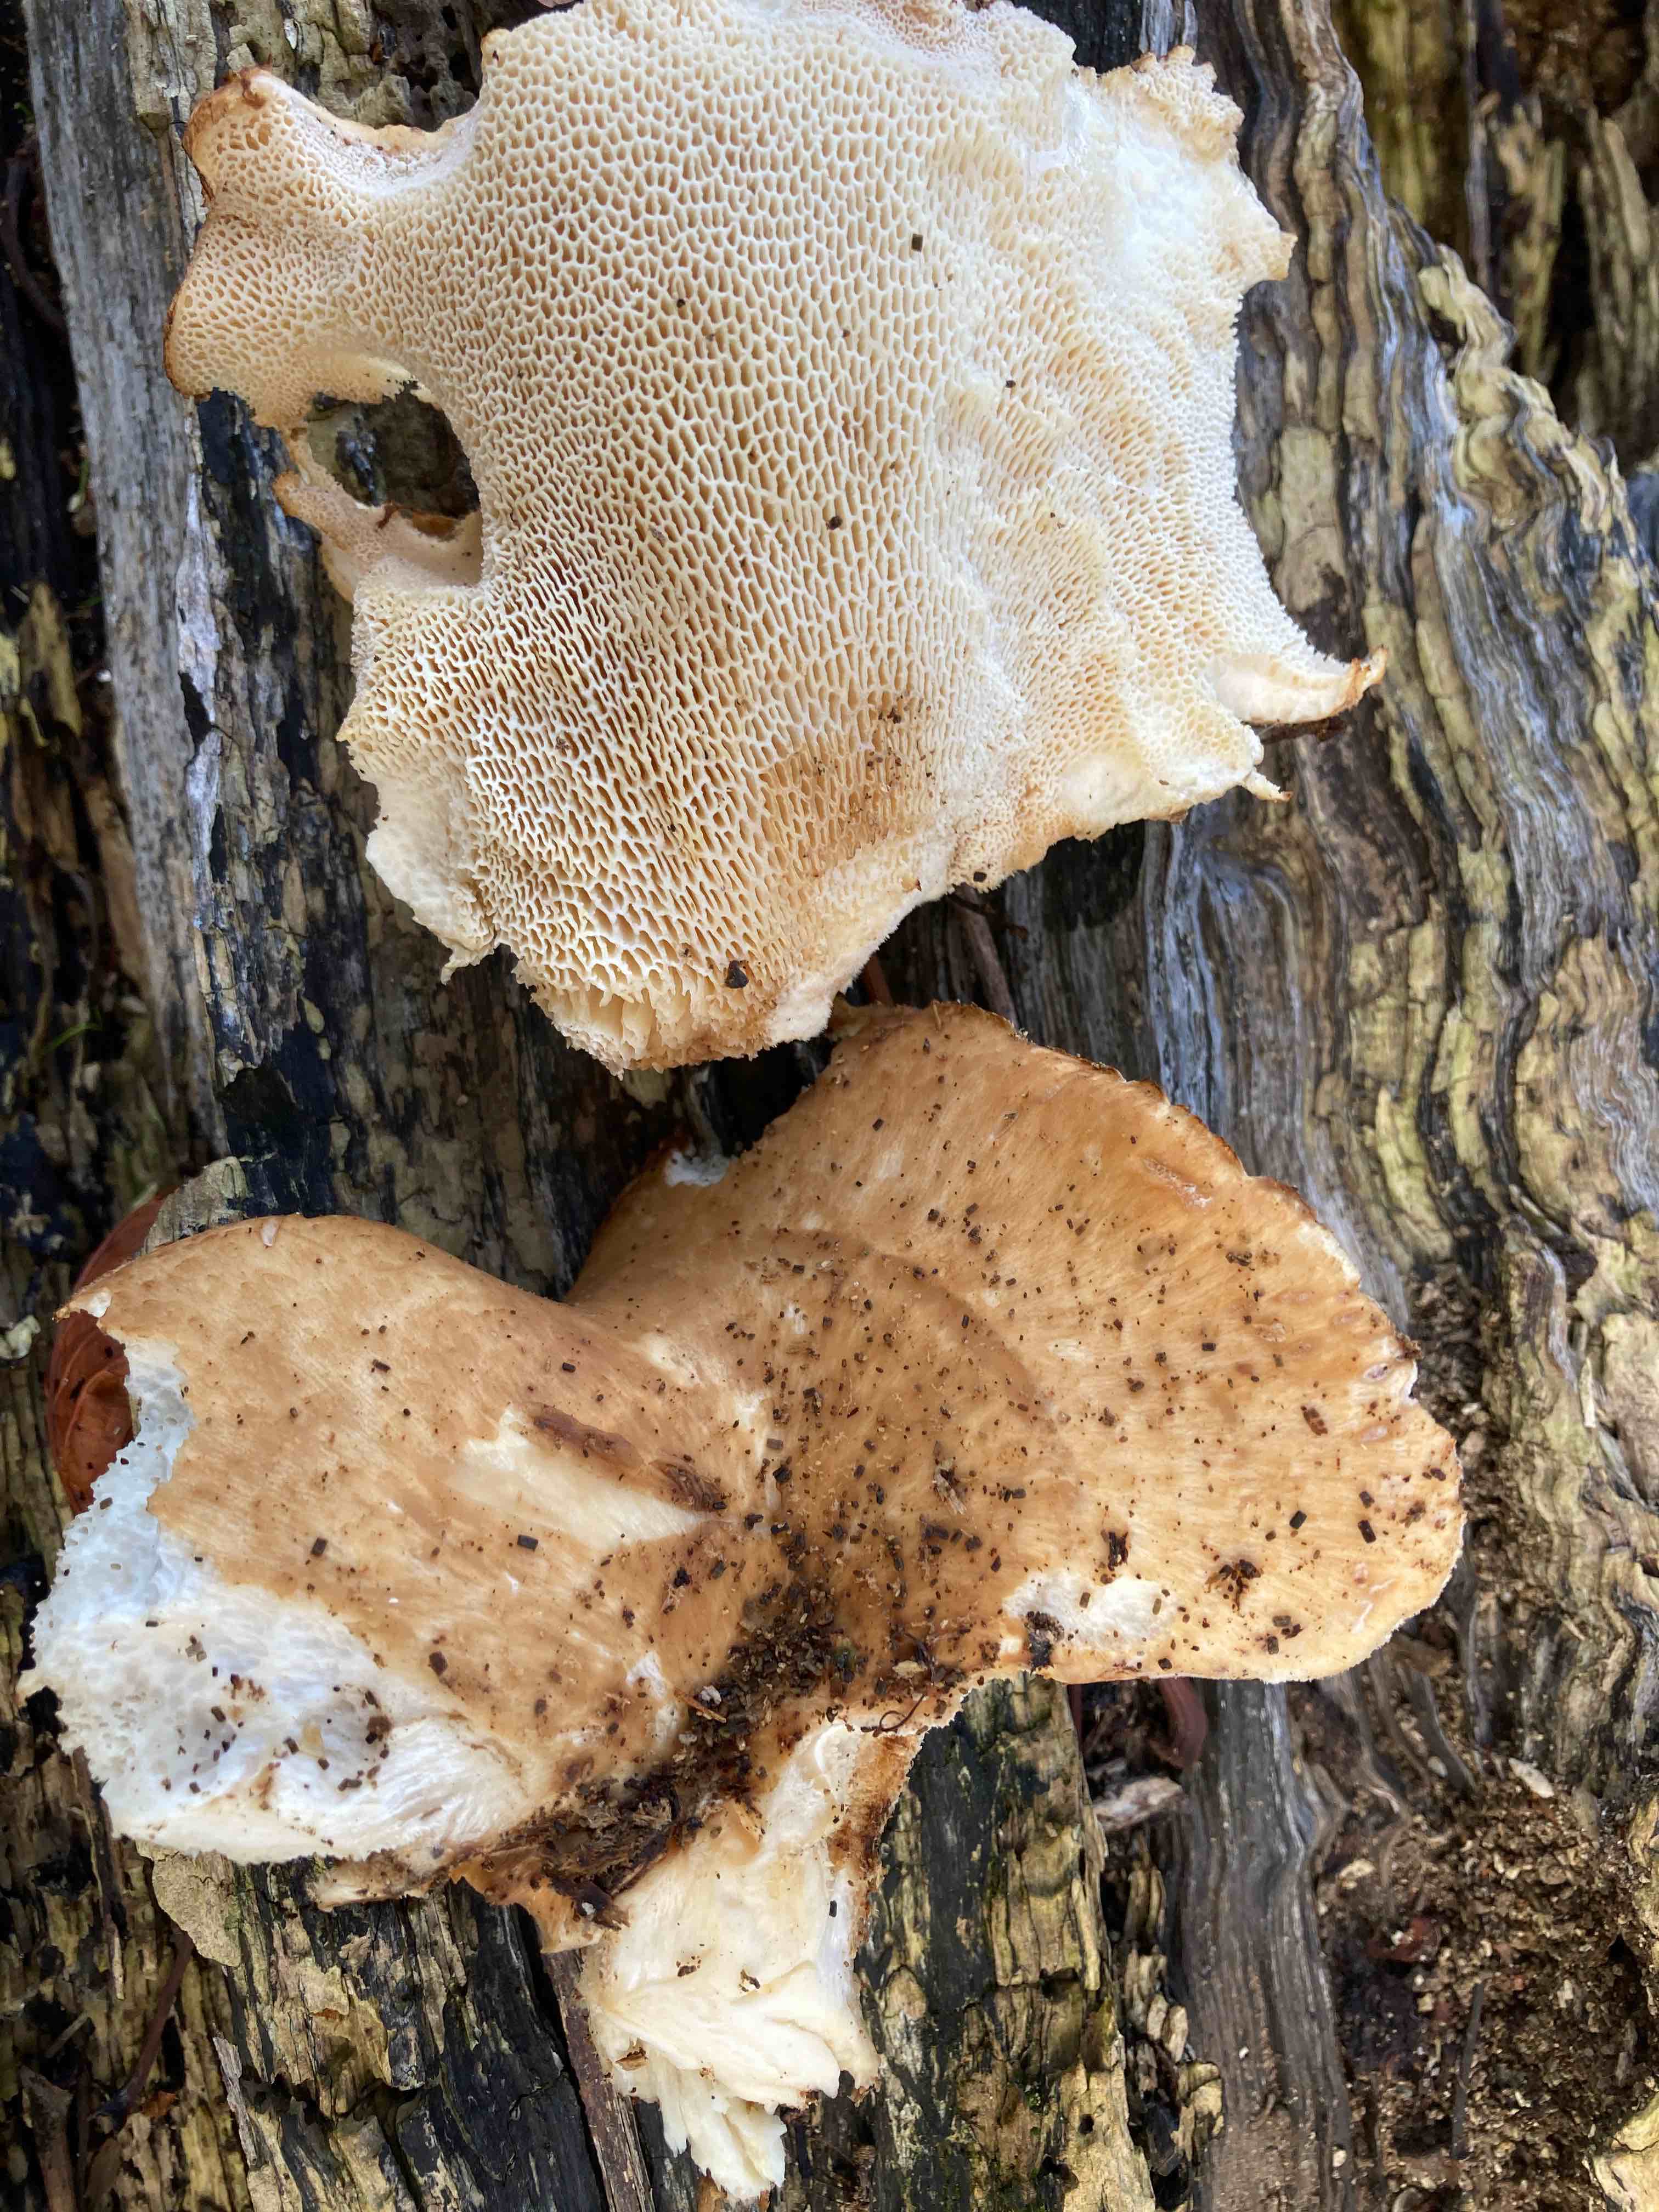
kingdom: Fungi
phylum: Basidiomycota
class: Agaricomycetes
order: Polyporales
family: Polyporaceae
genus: Polyporus
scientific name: Polyporus tuberaster
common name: knoldet stilkporesvamp
